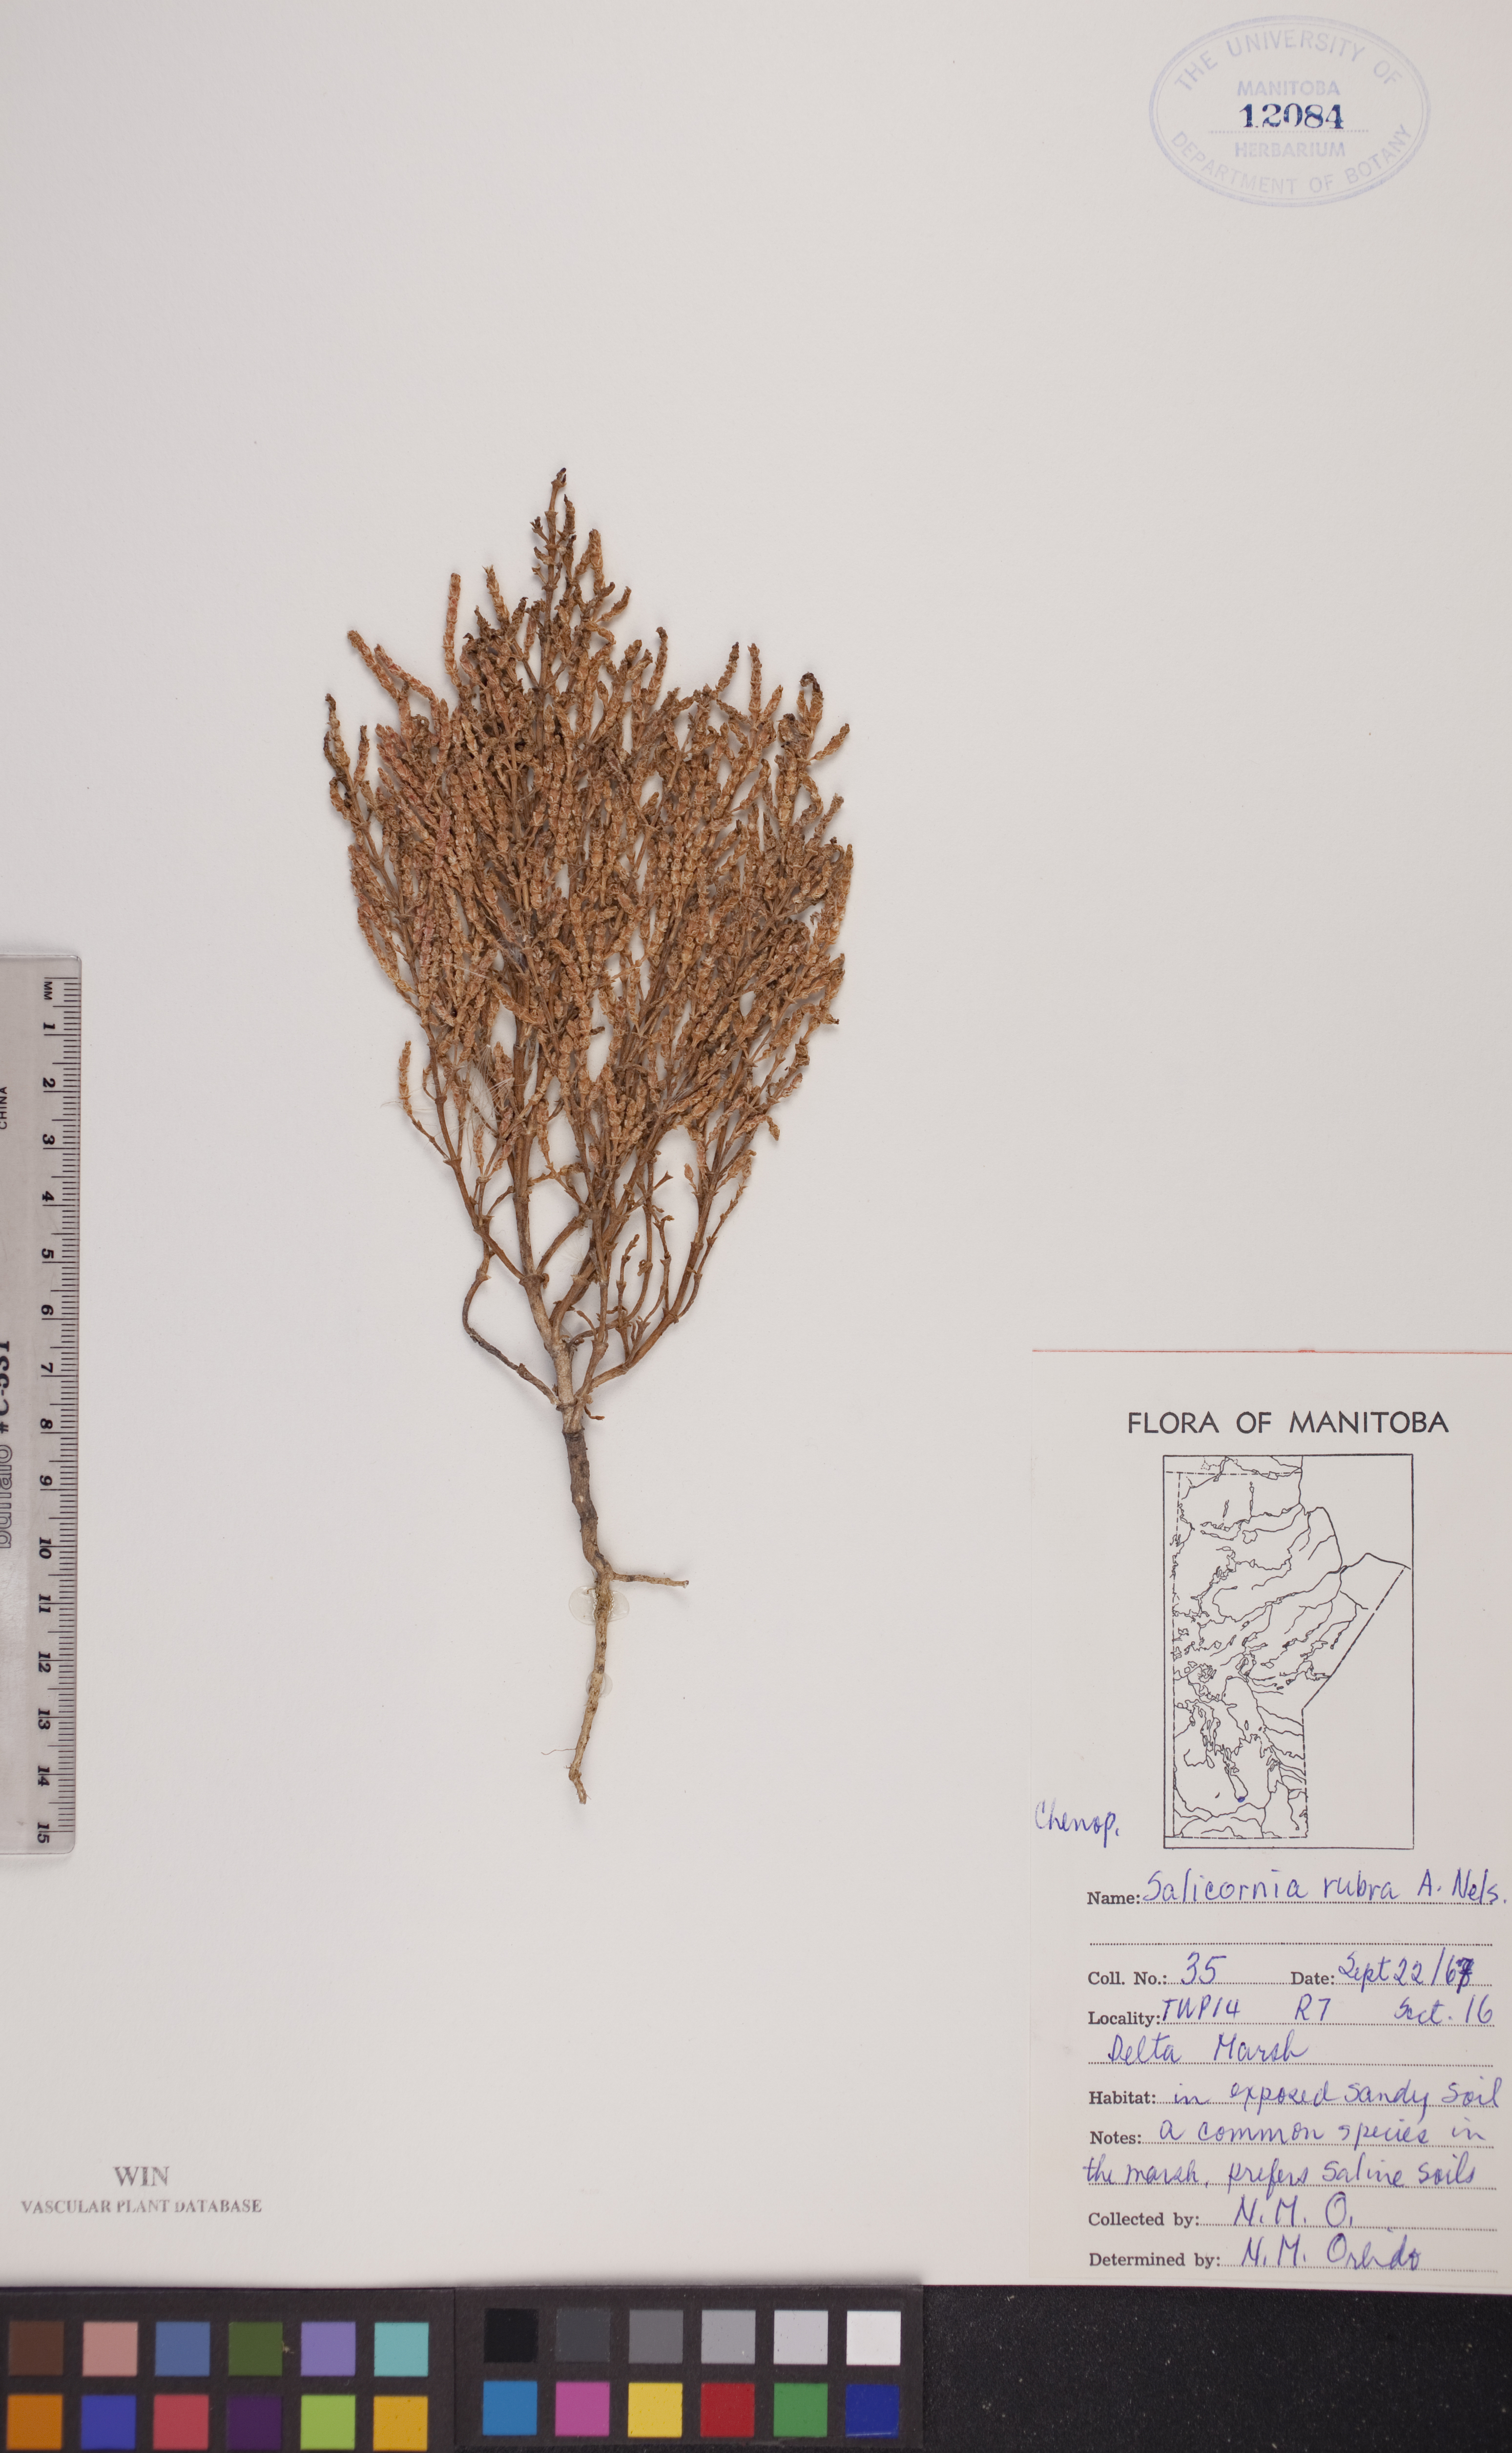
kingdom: Plantae
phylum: Tracheophyta
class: Magnoliopsida
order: Caryophyllales
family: Amaranthaceae
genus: Salicornia
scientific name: Salicornia rubra
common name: Red glasswort
